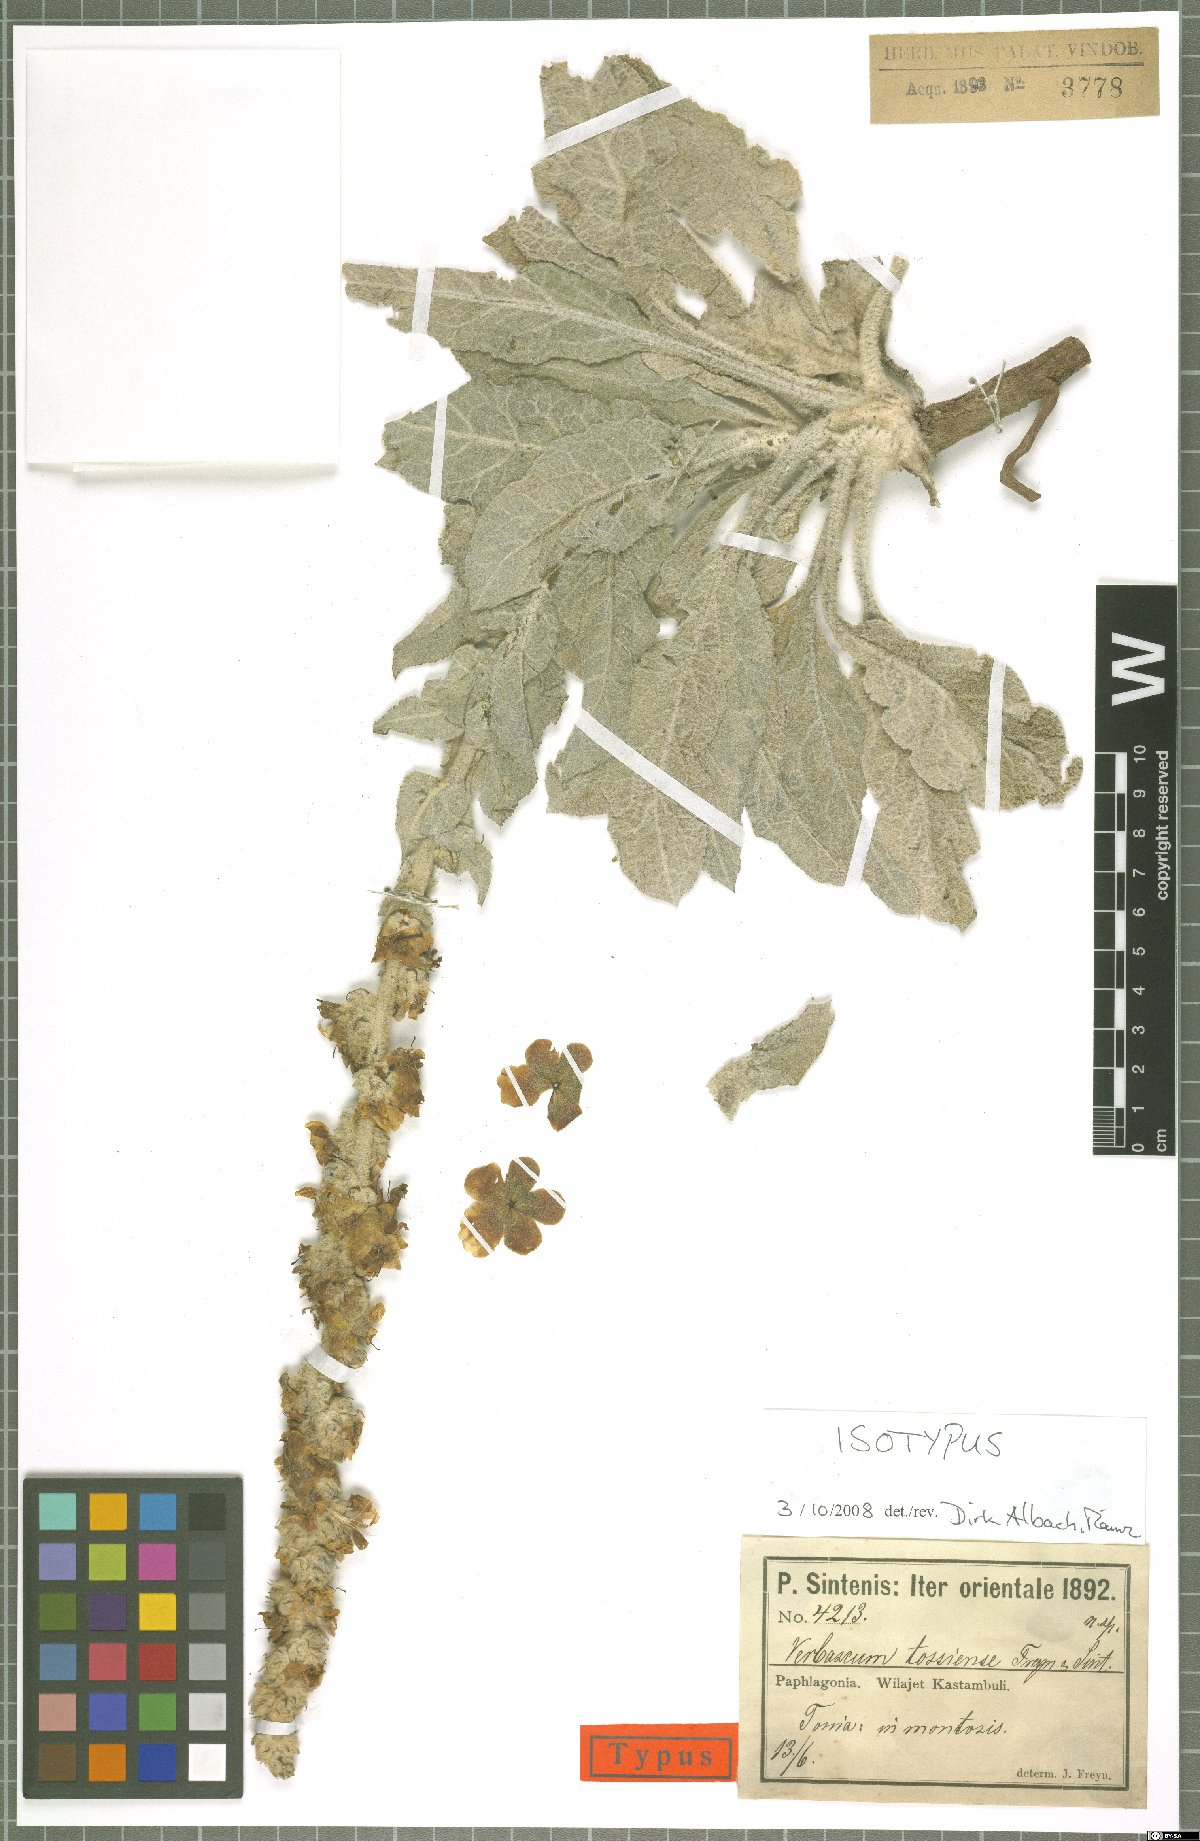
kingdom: Plantae
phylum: Tracheophyta
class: Magnoliopsida
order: Lamiales
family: Scrophulariaceae
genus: Verbascum
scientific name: Verbascum tossiense
